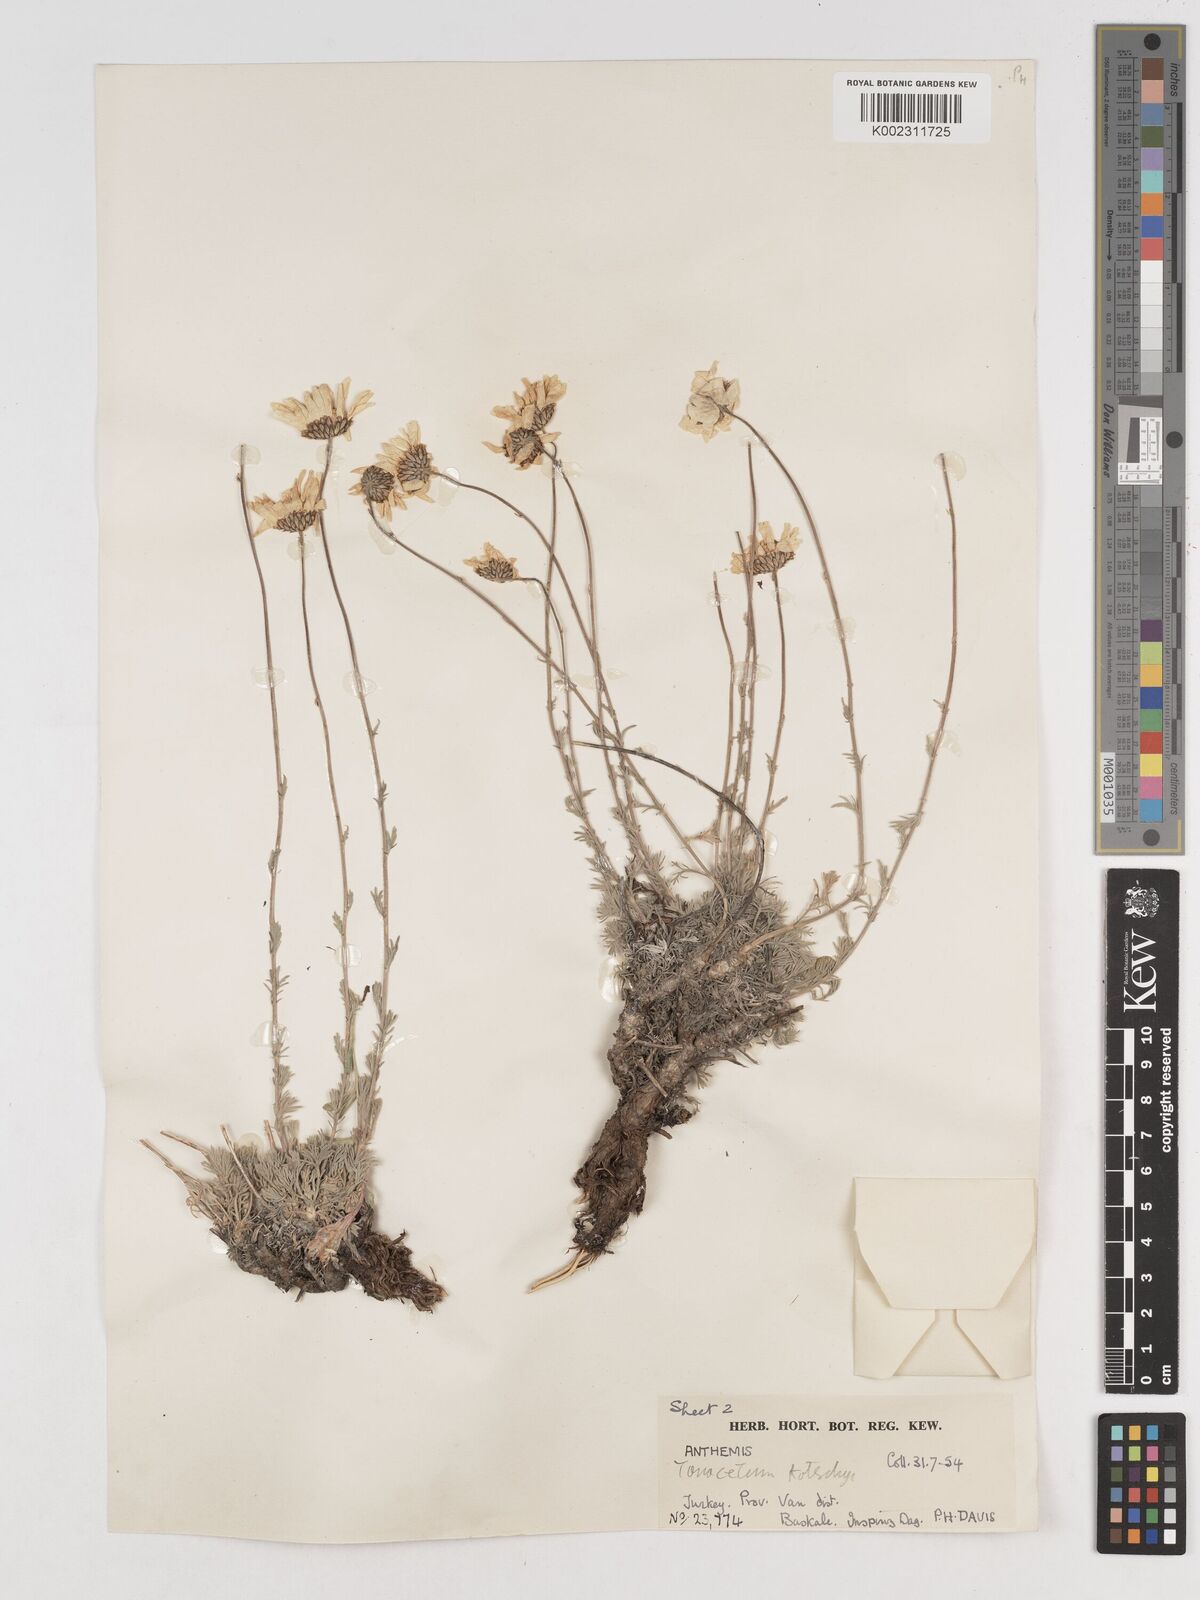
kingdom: Plantae
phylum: Tracheophyta
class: Magnoliopsida
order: Asterales
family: Asteraceae
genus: Tanacetum
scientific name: Tanacetum kotschyi
